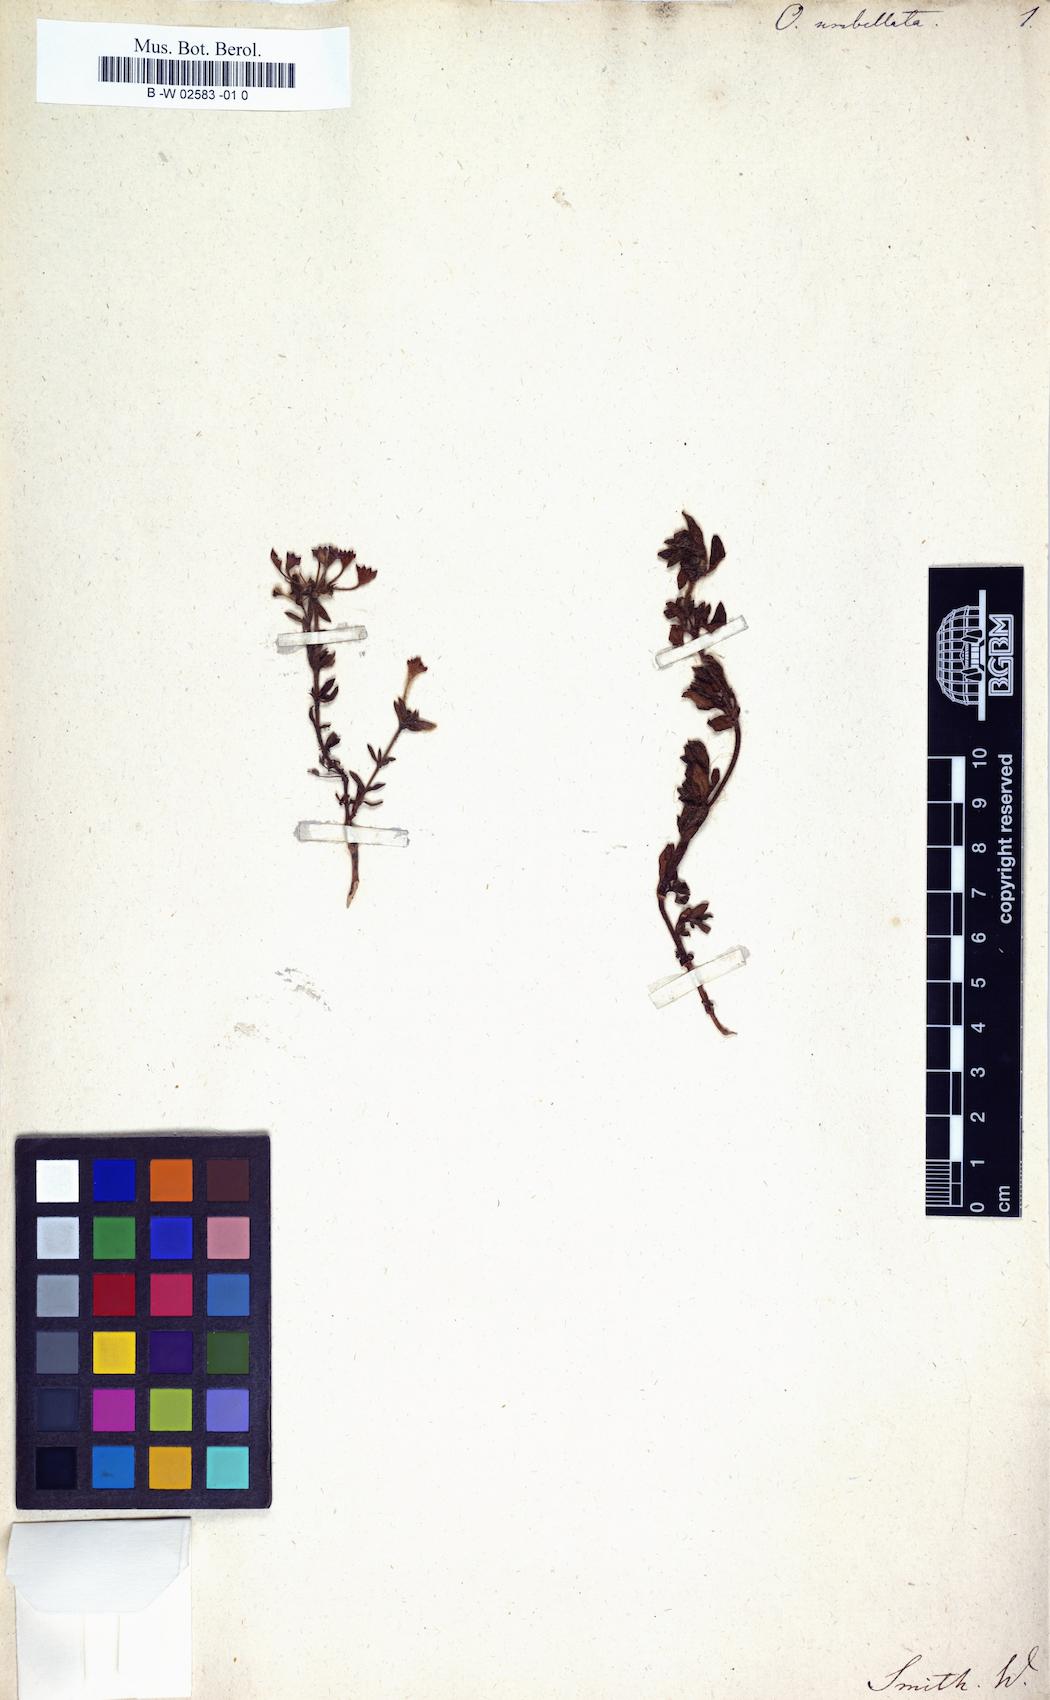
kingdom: Plantae
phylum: Tracheophyta
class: Magnoliopsida
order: Gentianales
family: Rubiaceae
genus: Pomax
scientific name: Pomax umbellata
